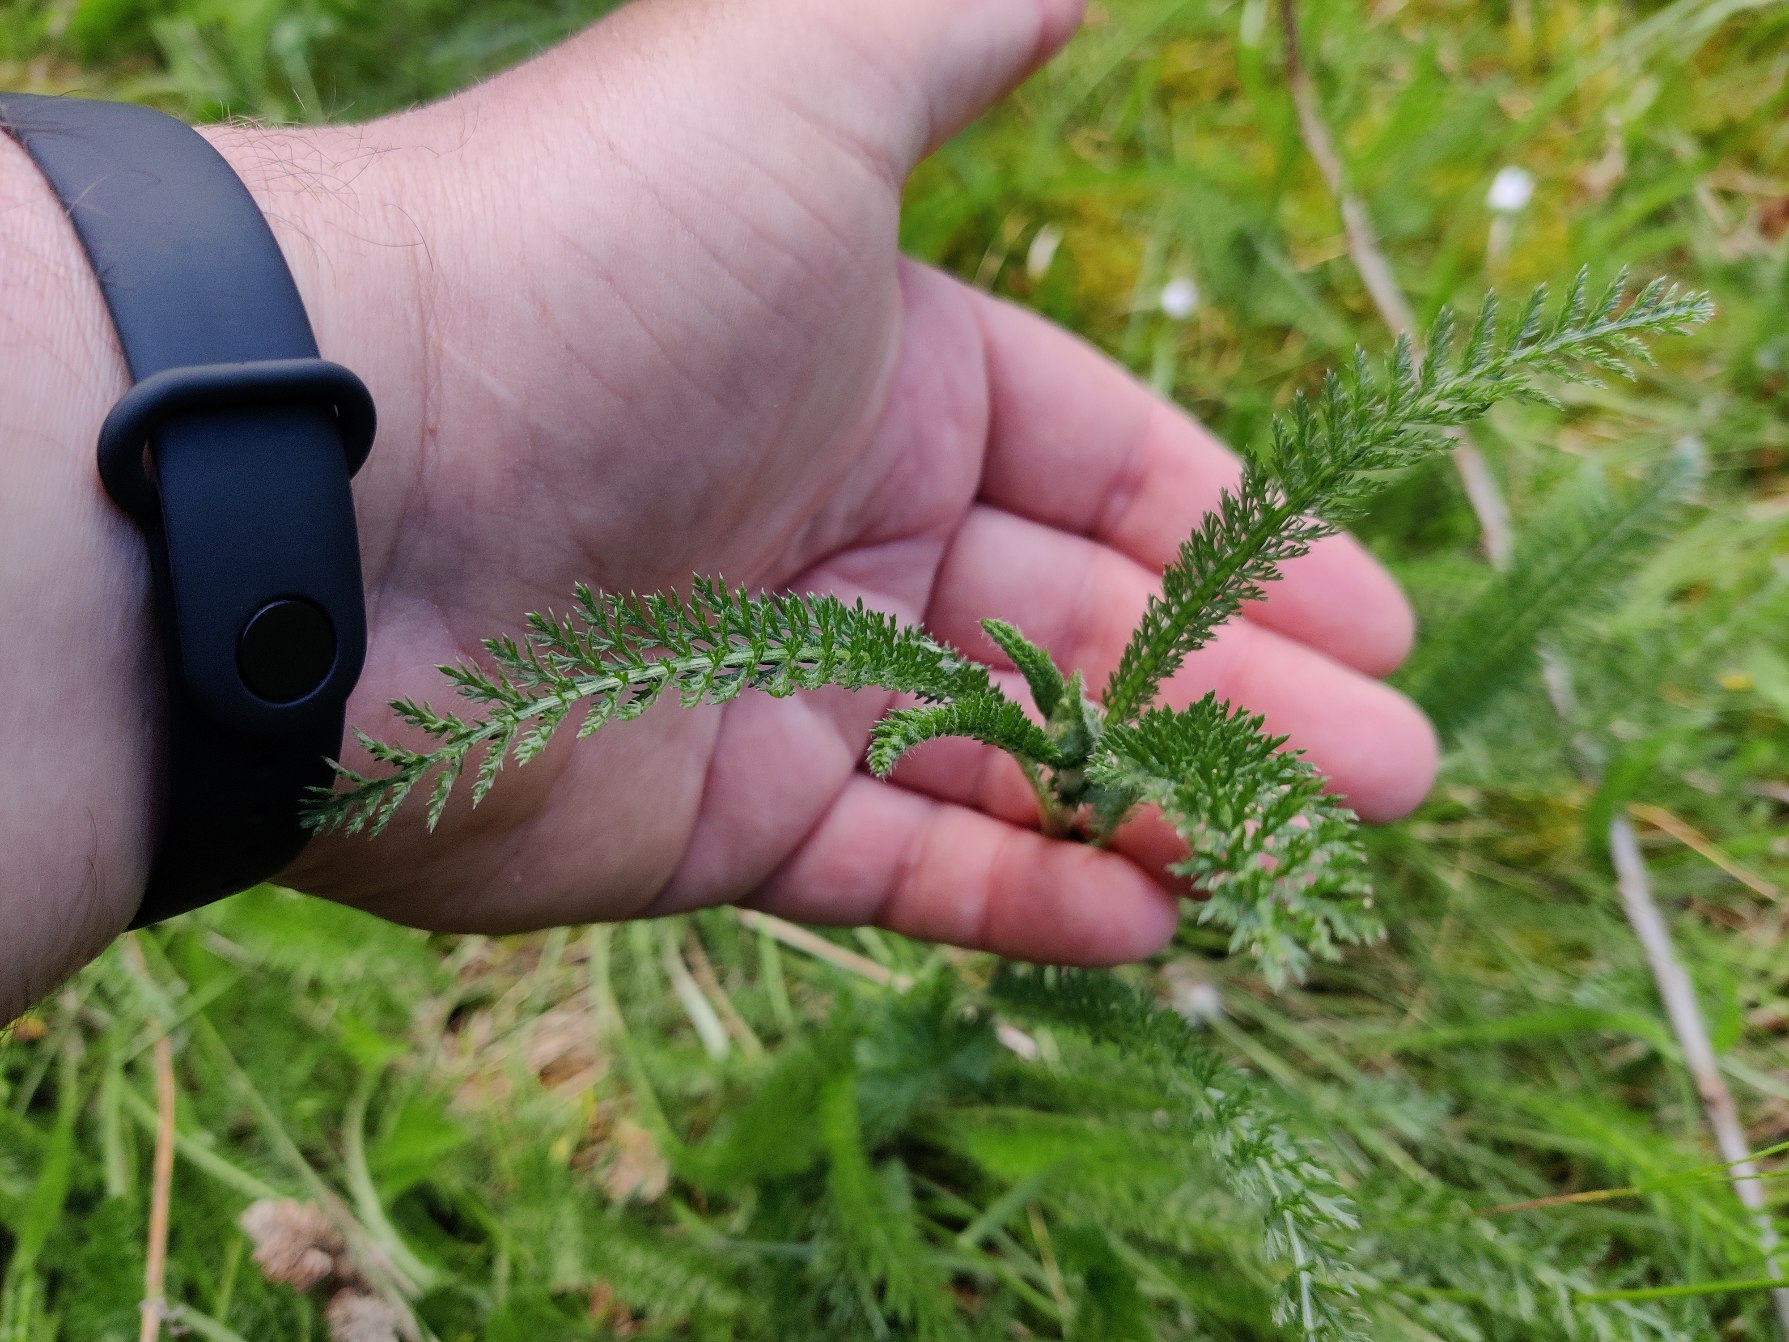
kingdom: Plantae
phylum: Tracheophyta
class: Magnoliopsida
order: Asterales
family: Asteraceae
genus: Achillea
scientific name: Achillea millefolium
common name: Almindelig røllike
